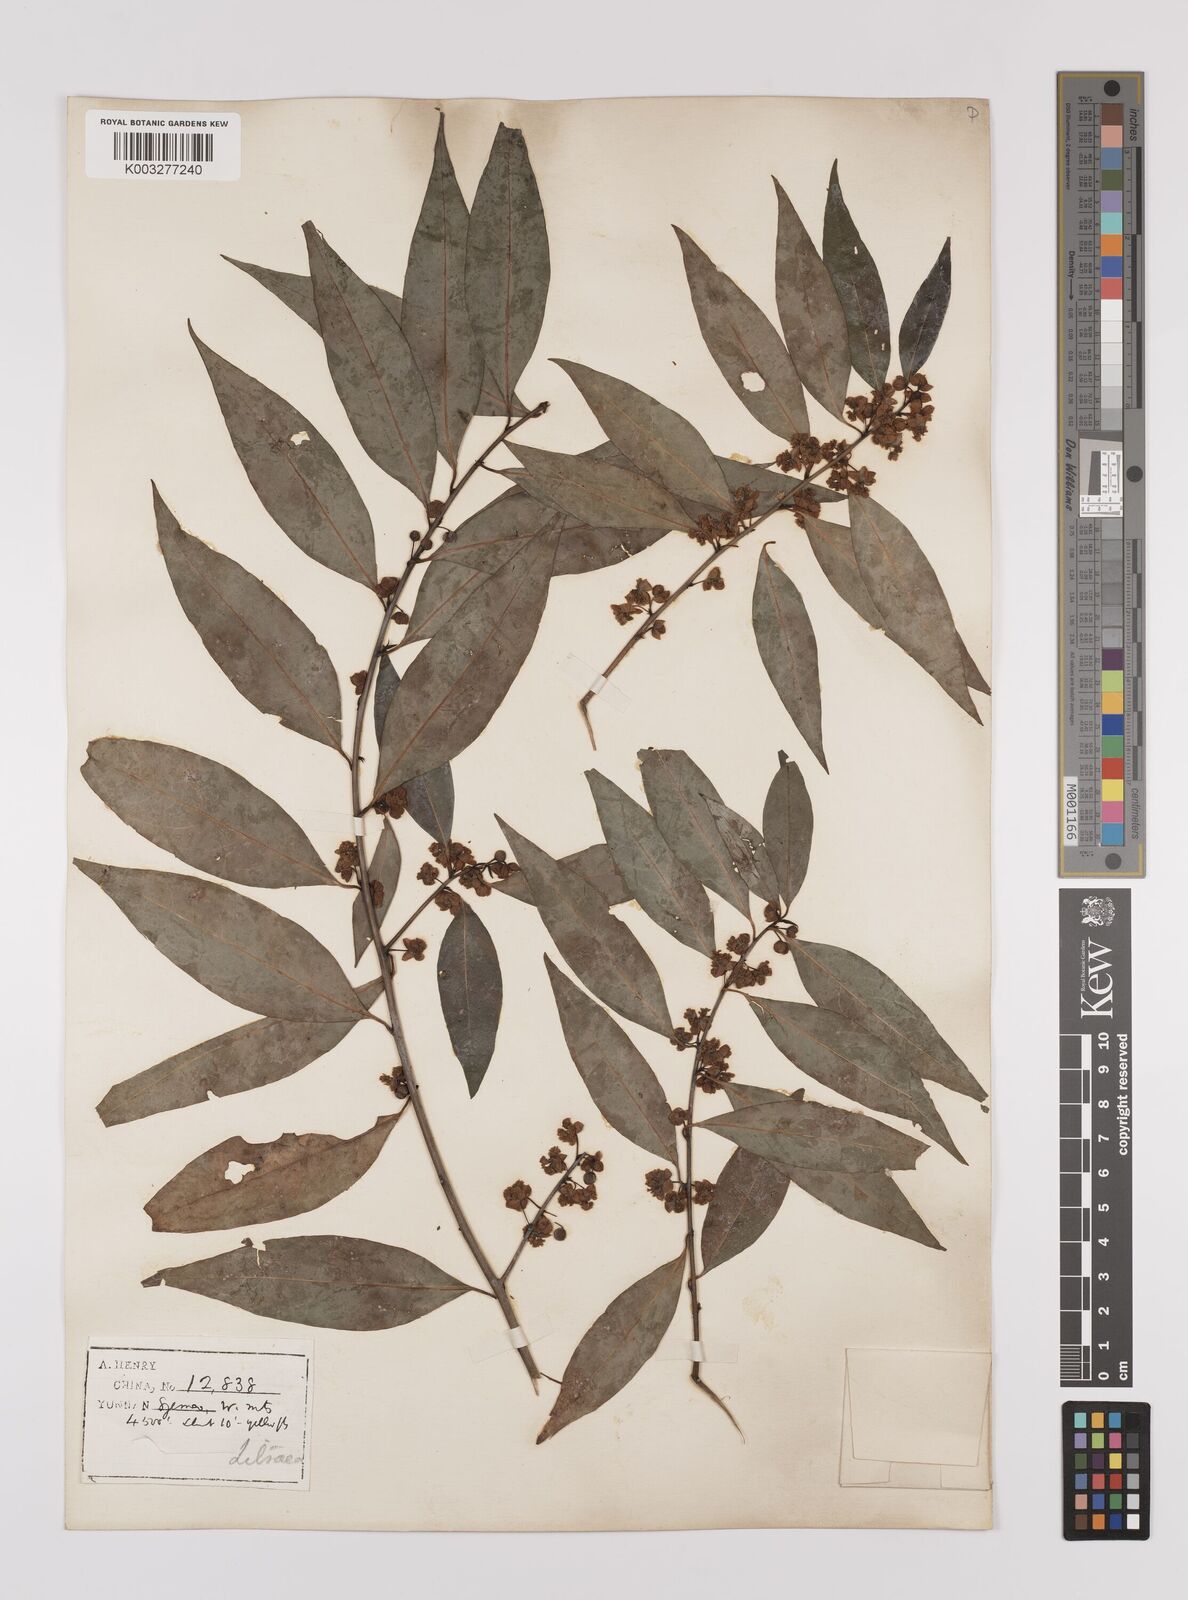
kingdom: Plantae
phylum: Tracheophyta
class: Magnoliopsida
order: Laurales
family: Lauraceae
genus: Lindera
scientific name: Lindera pipericarpa
